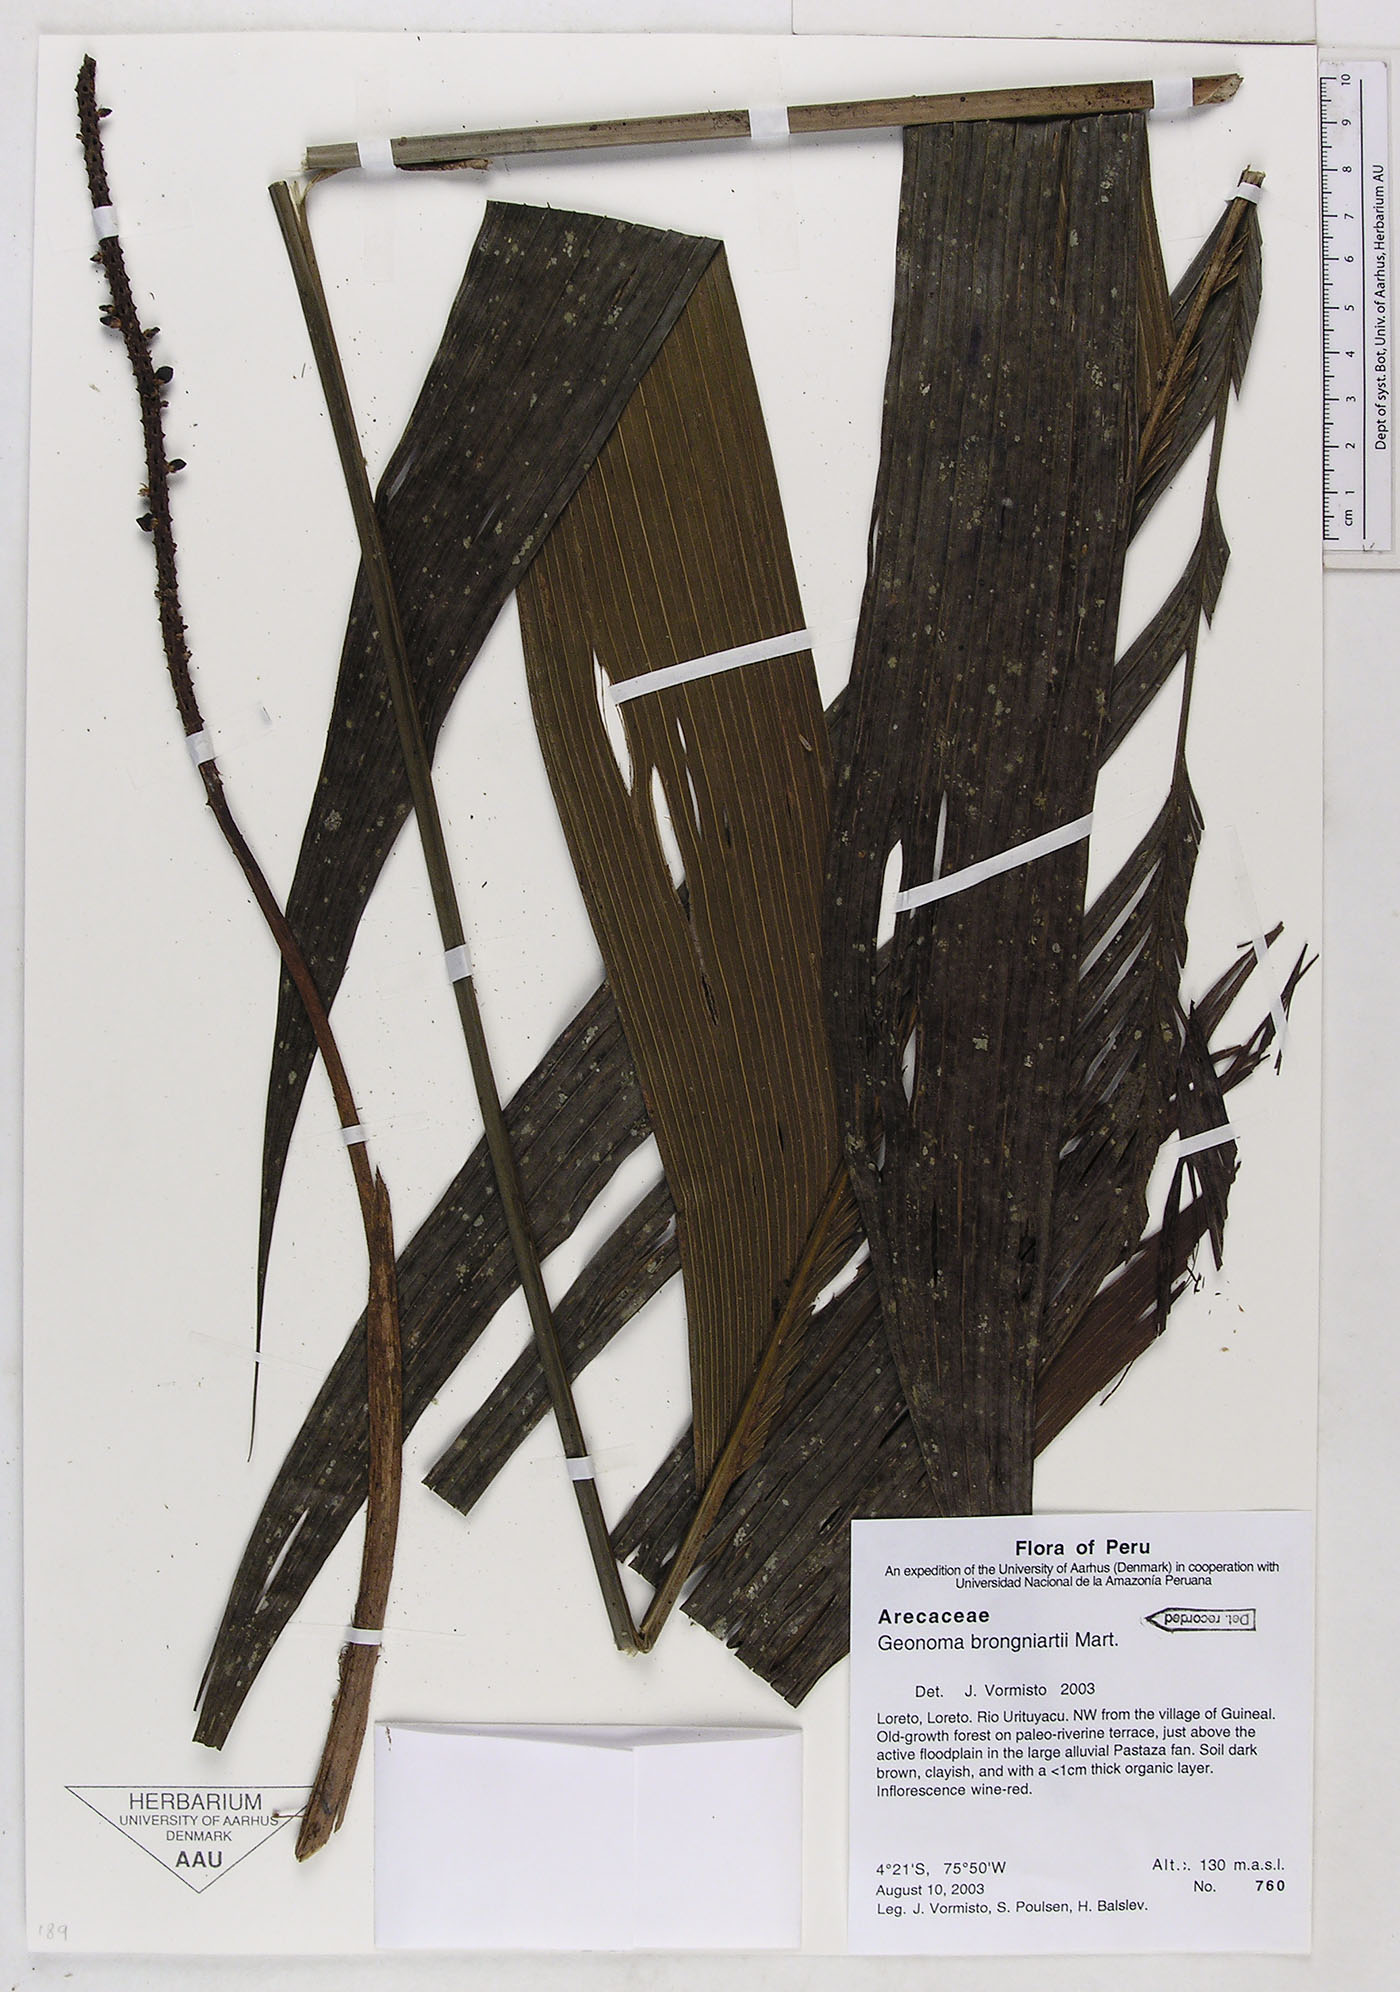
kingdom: Plantae
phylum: Tracheophyta
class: Liliopsida
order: Arecales
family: Arecaceae
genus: Geonoma
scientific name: Geonoma brongniartii
